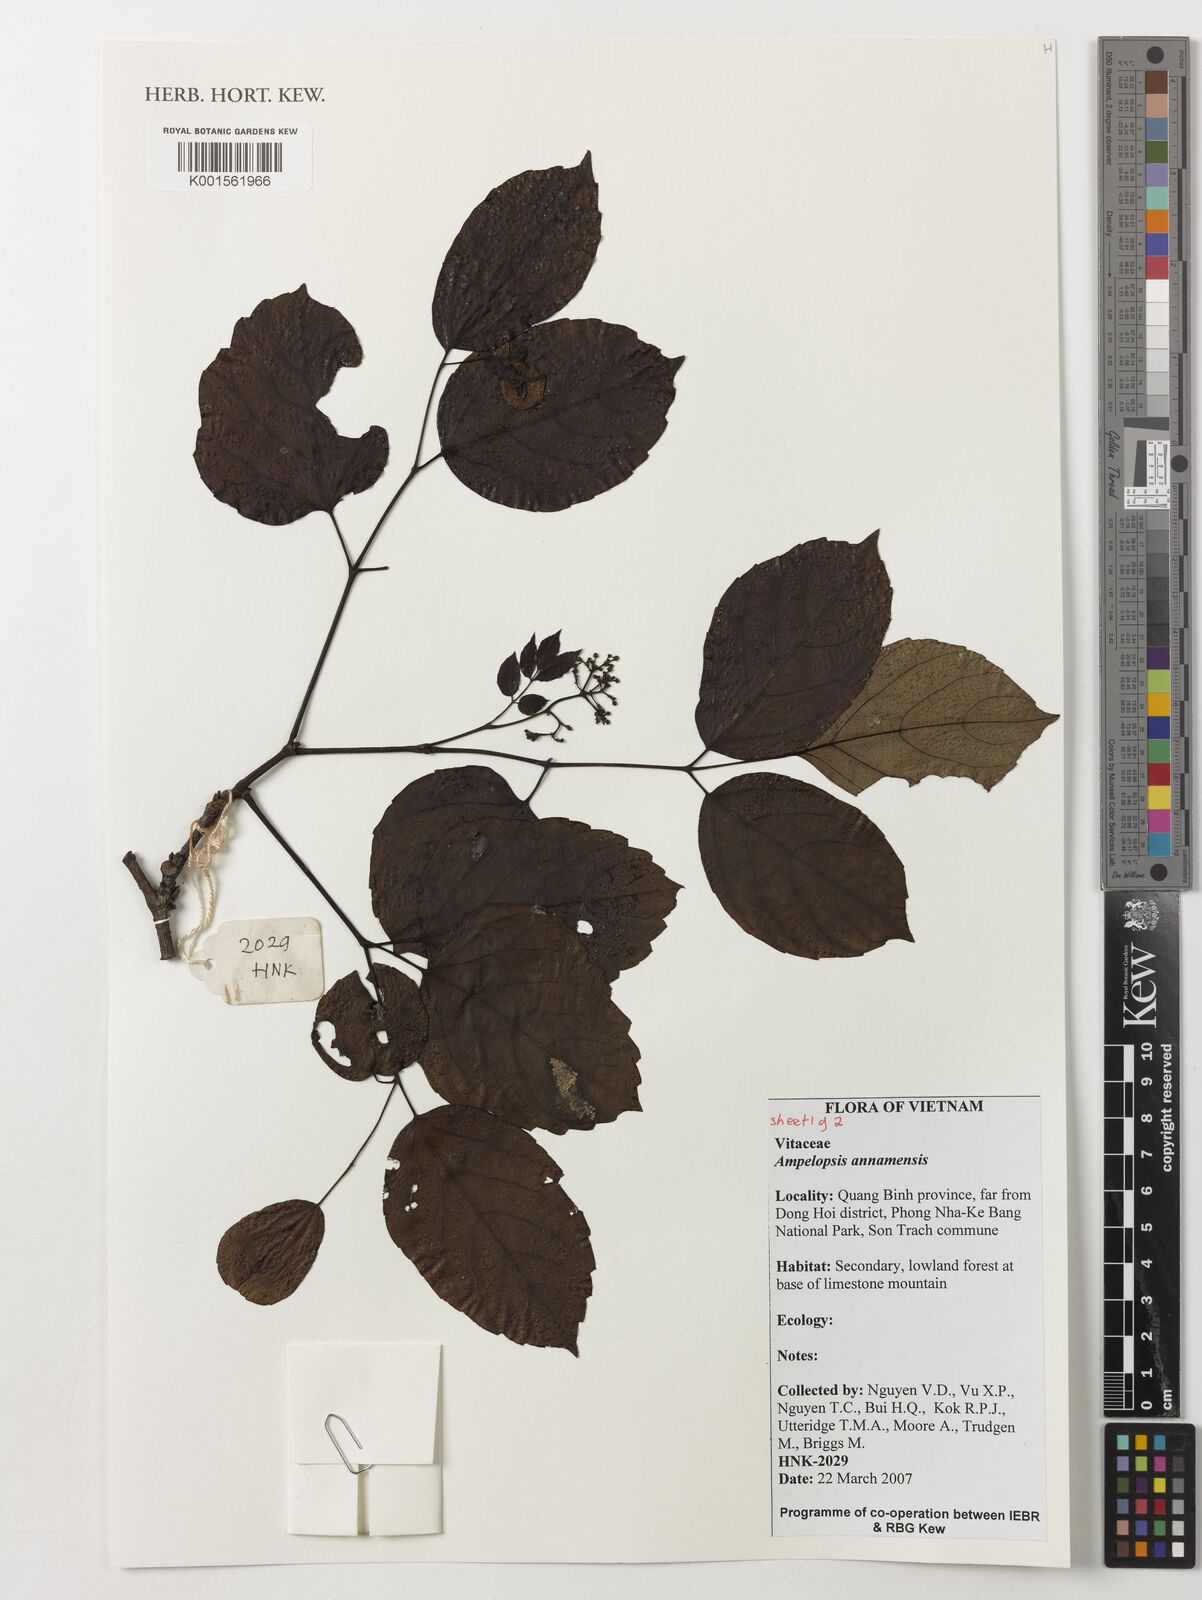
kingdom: Plantae
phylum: Tracheophyta
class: Magnoliopsida
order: Vitales
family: Vitaceae
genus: Nekemias
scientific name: Nekemias cantoniensis
